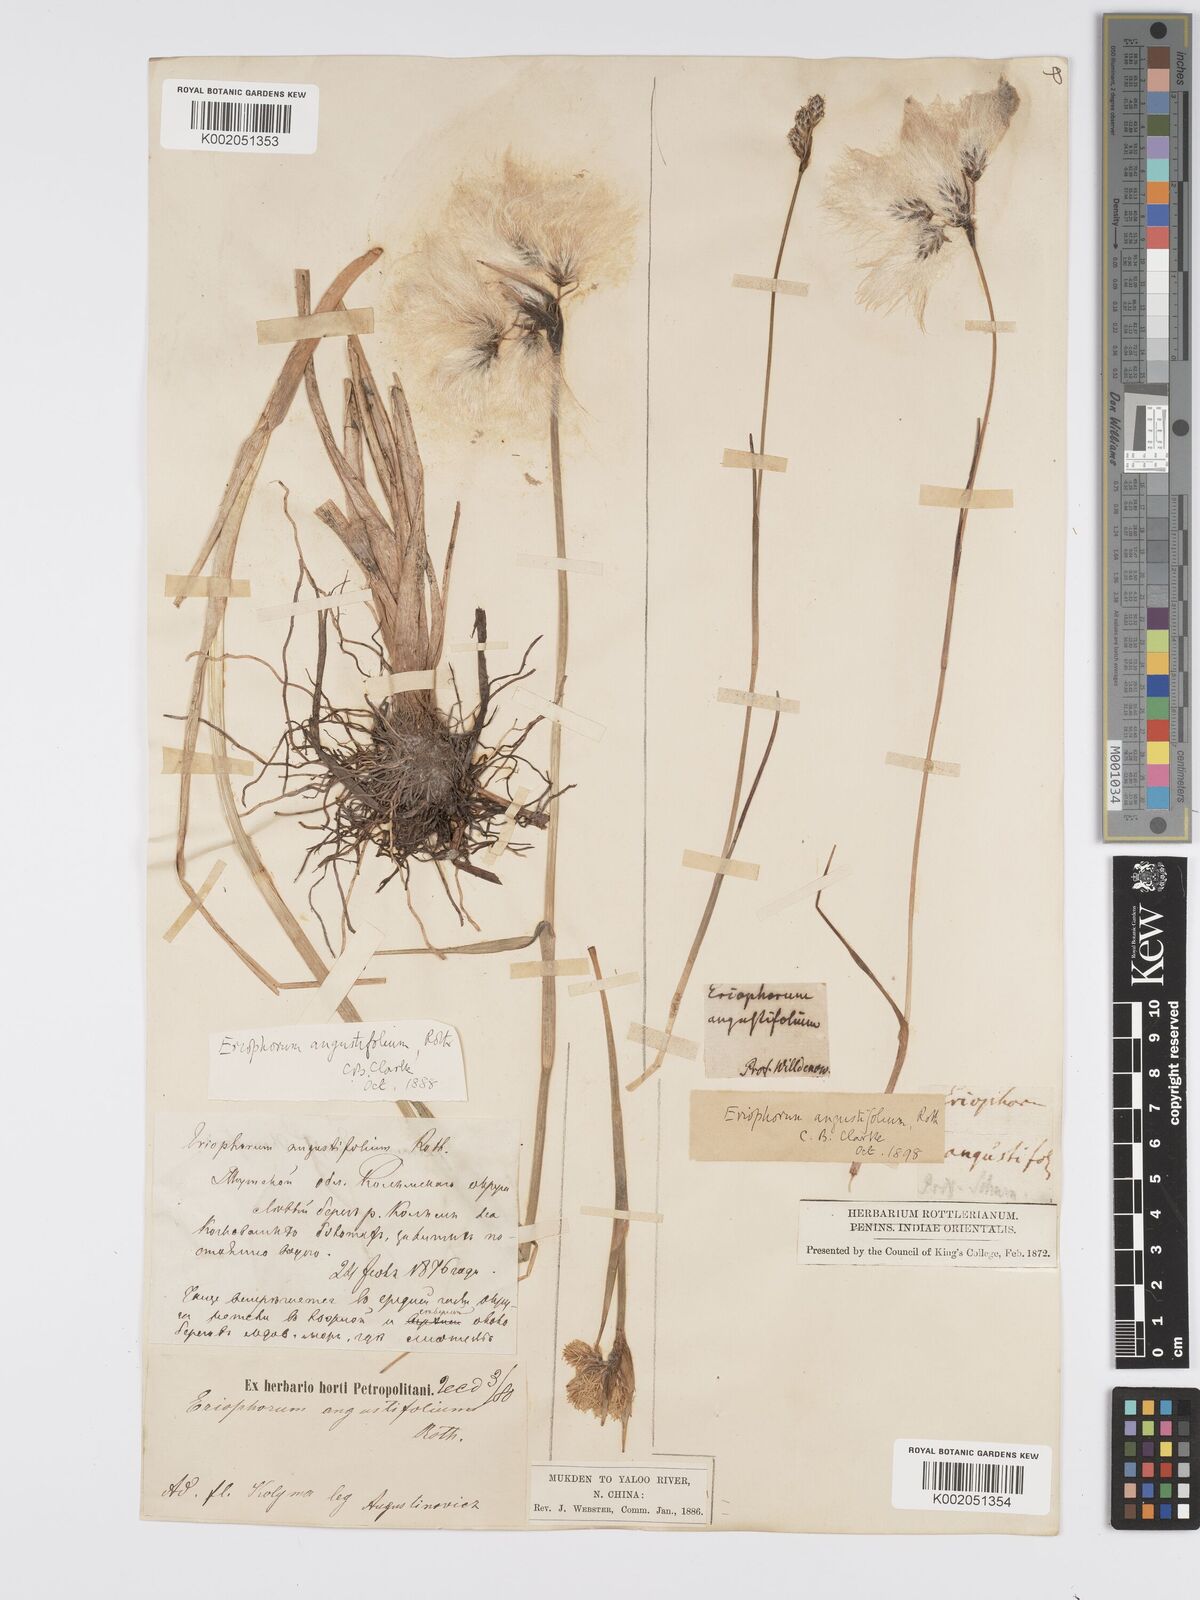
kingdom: Plantae
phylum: Tracheophyta
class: Liliopsida
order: Poales
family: Cyperaceae
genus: Eriophorum
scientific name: Eriophorum angustifolium
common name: Common cottongrass
